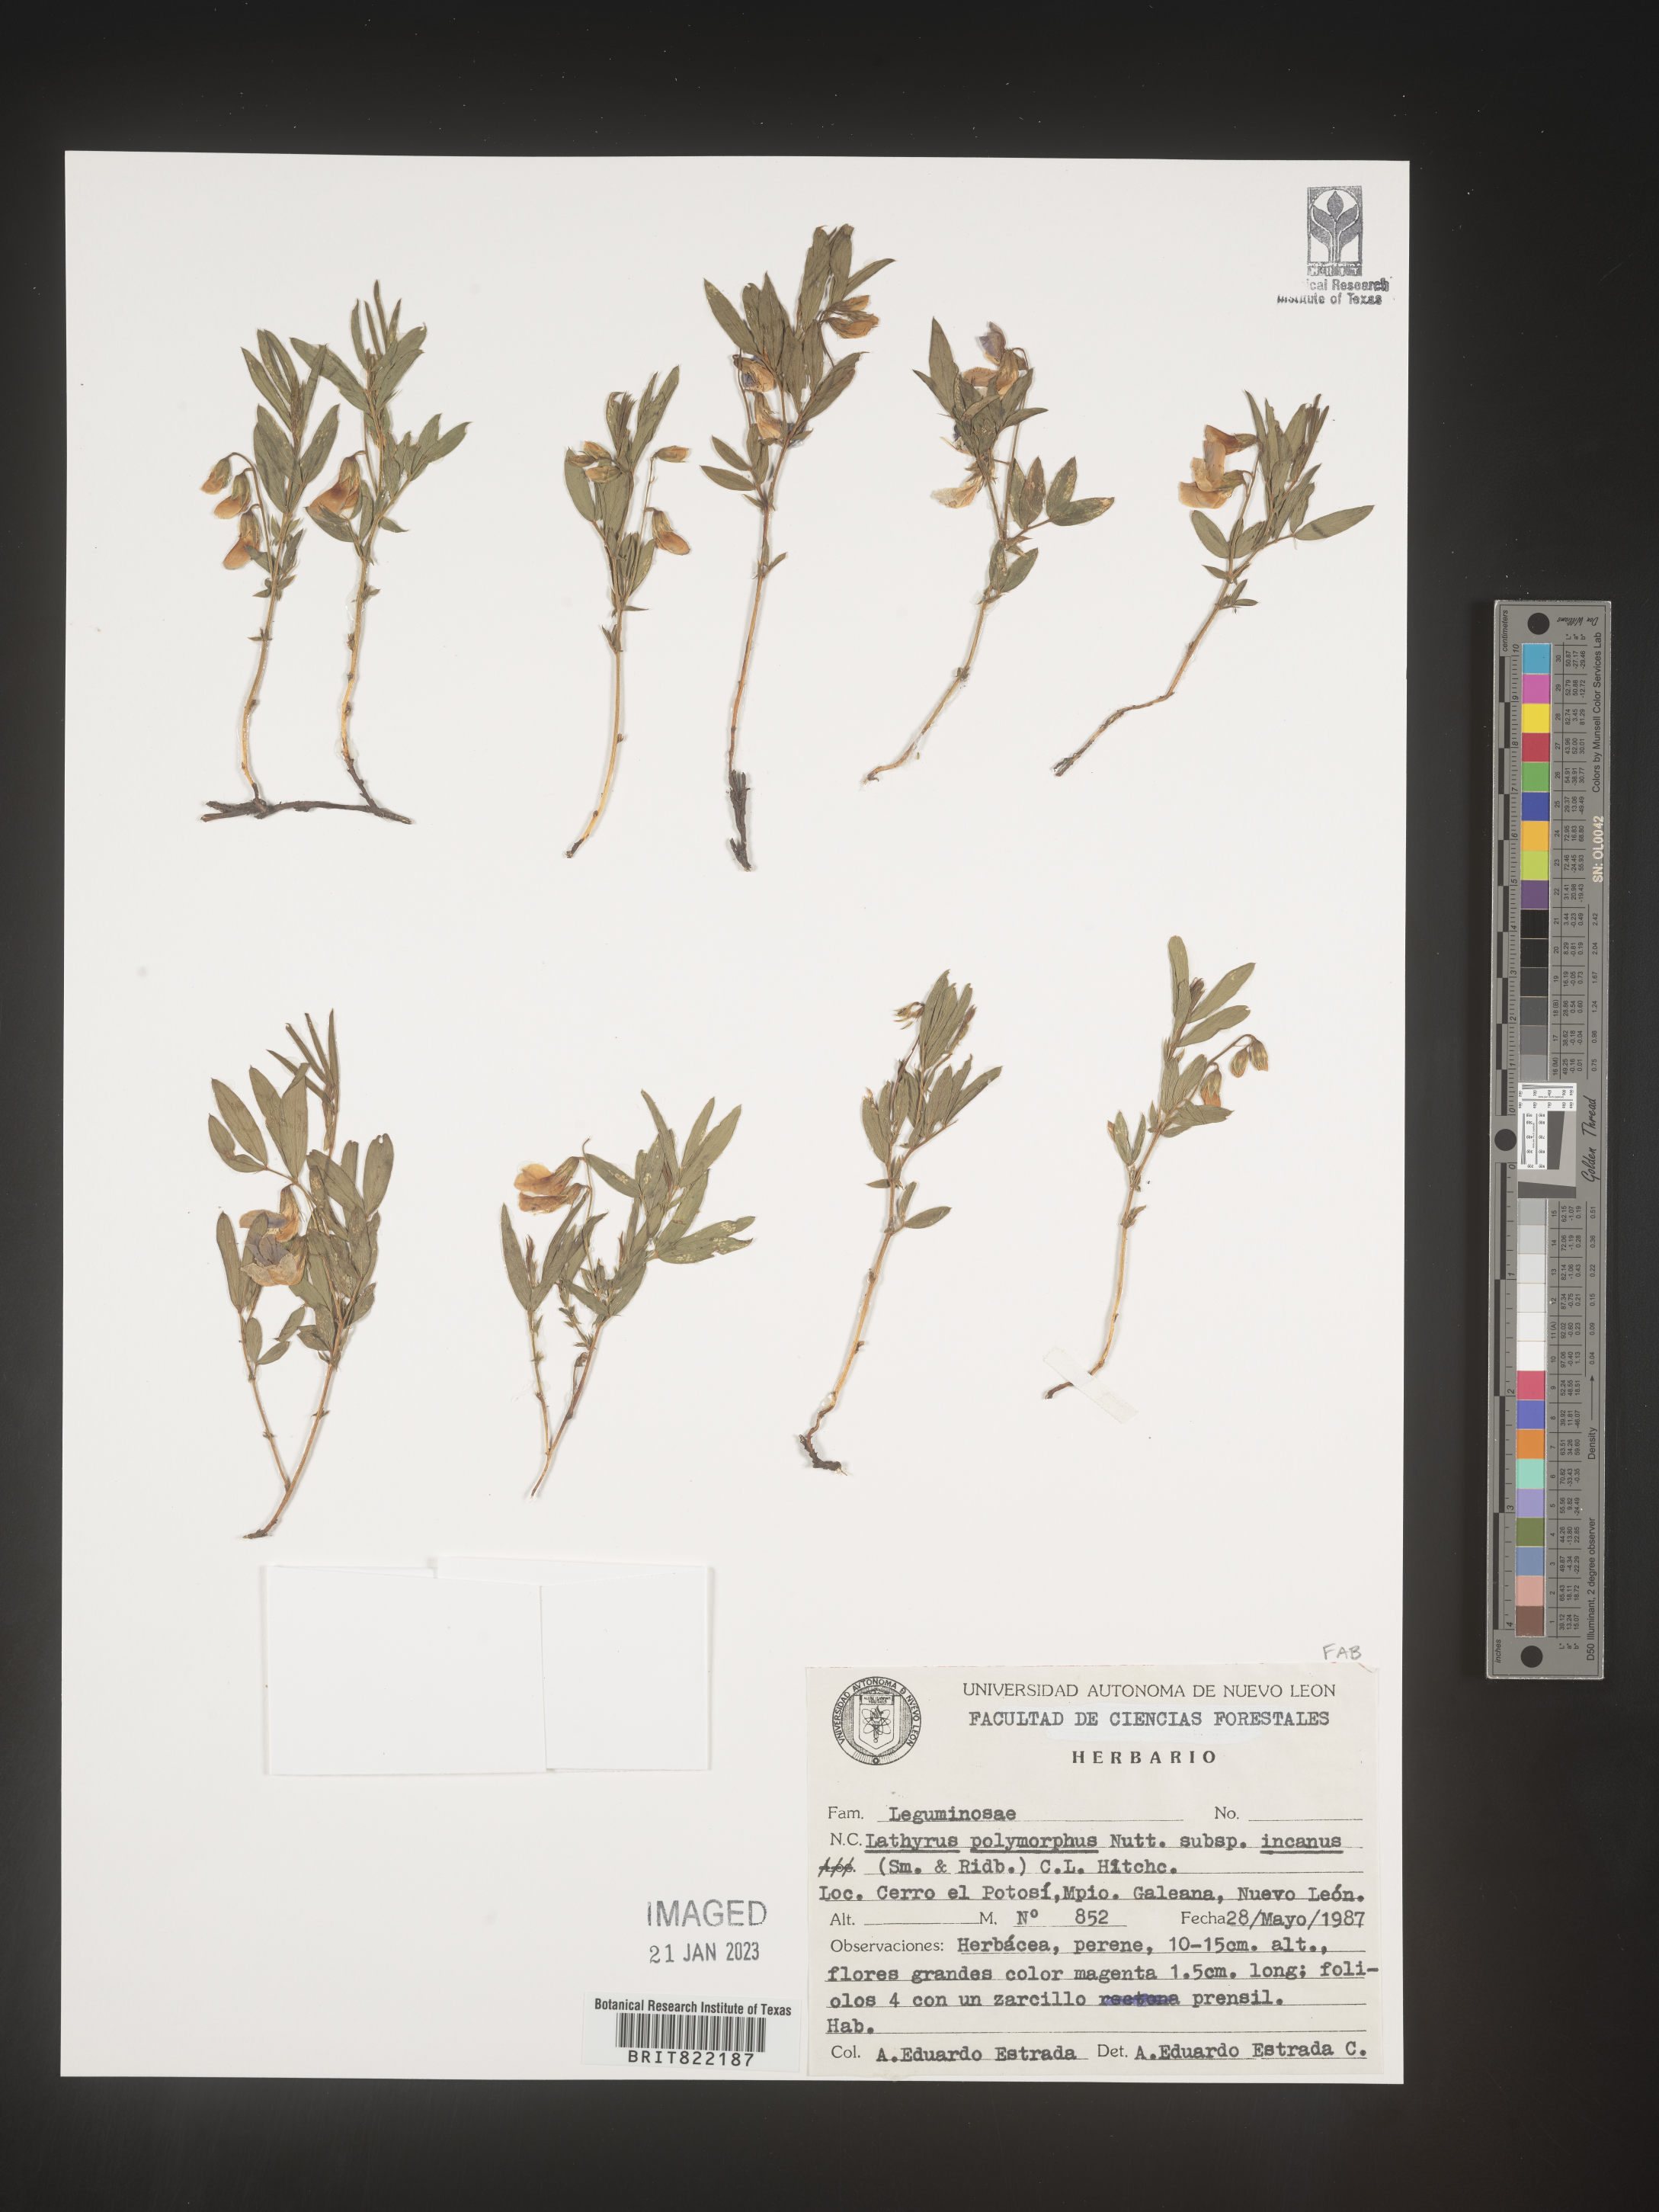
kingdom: Plantae
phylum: Tracheophyta
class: Magnoliopsida
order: Fabales
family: Fabaceae
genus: Lathyrus
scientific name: Lathyrus
